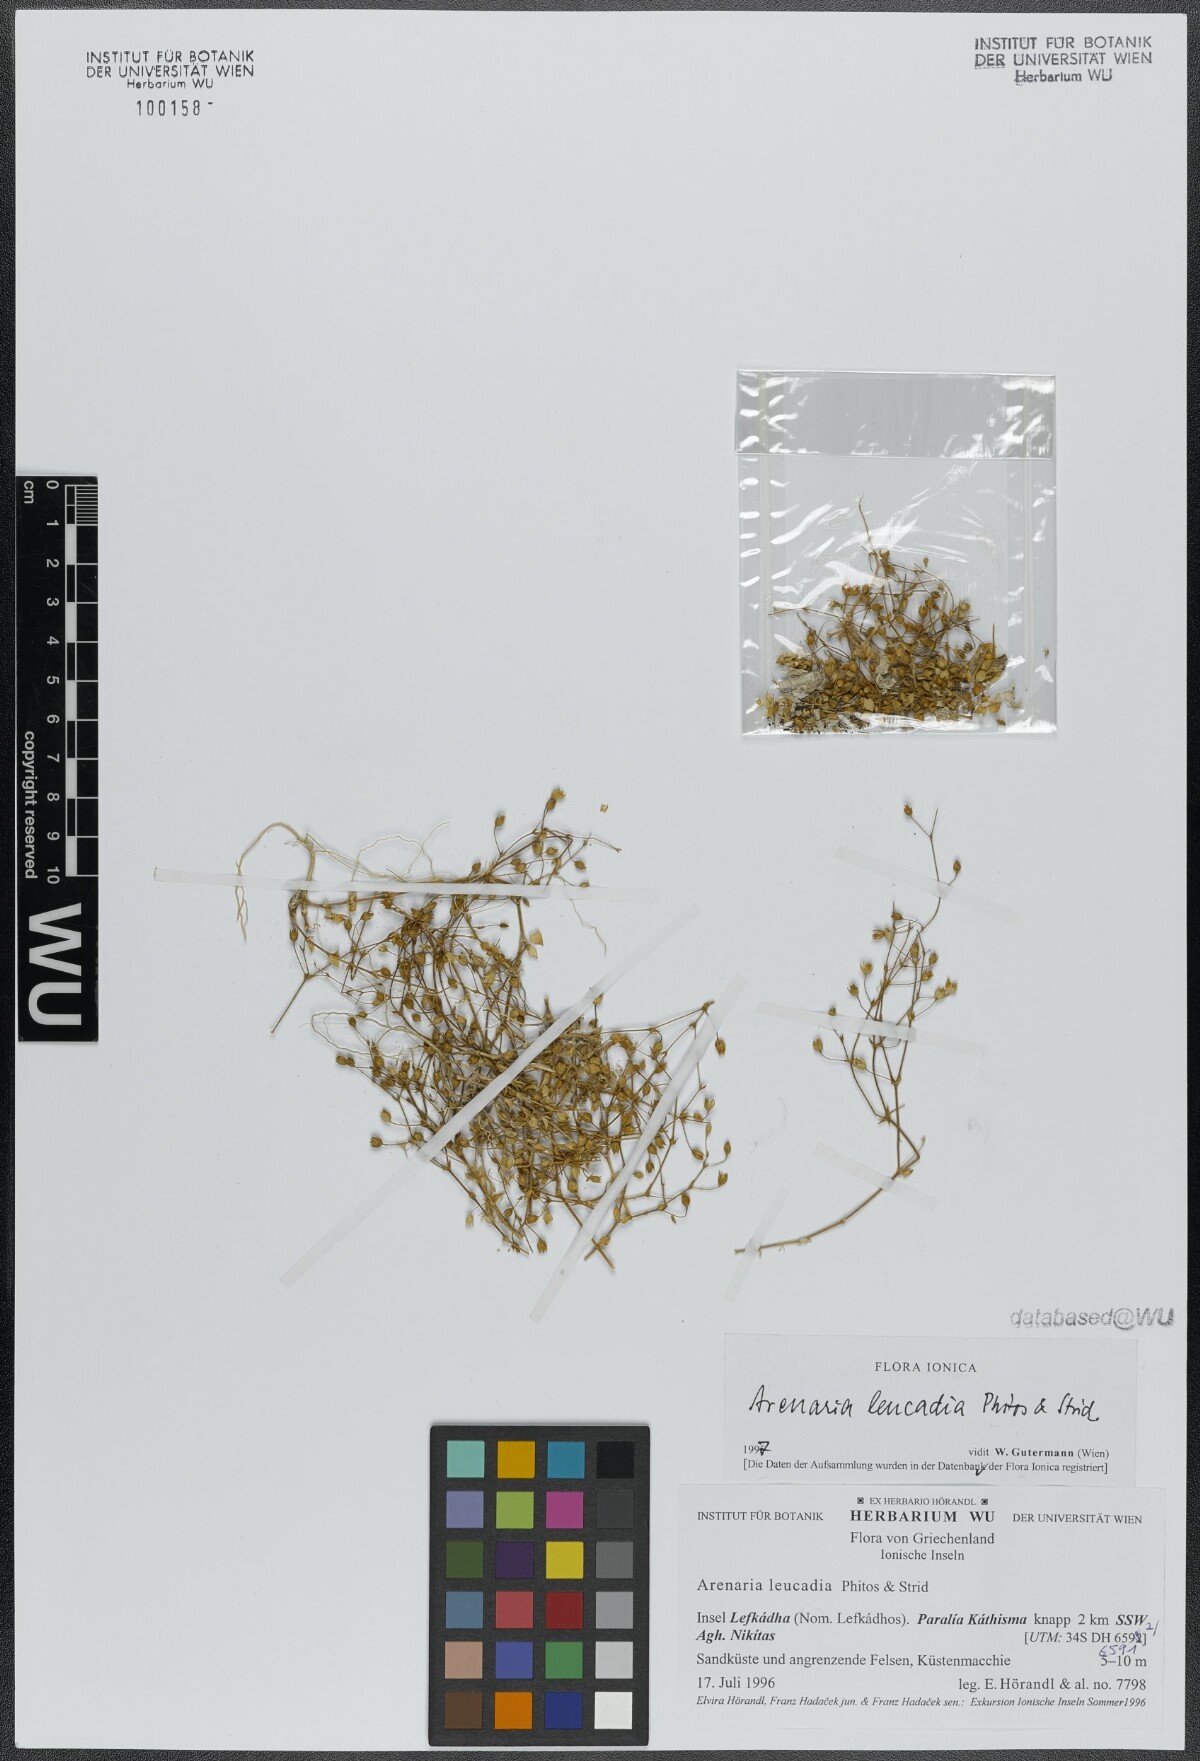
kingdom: Plantae
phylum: Tracheophyta
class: Magnoliopsida
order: Caryophyllales
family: Caryophyllaceae
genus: Arenaria
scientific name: Arenaria leucadia
